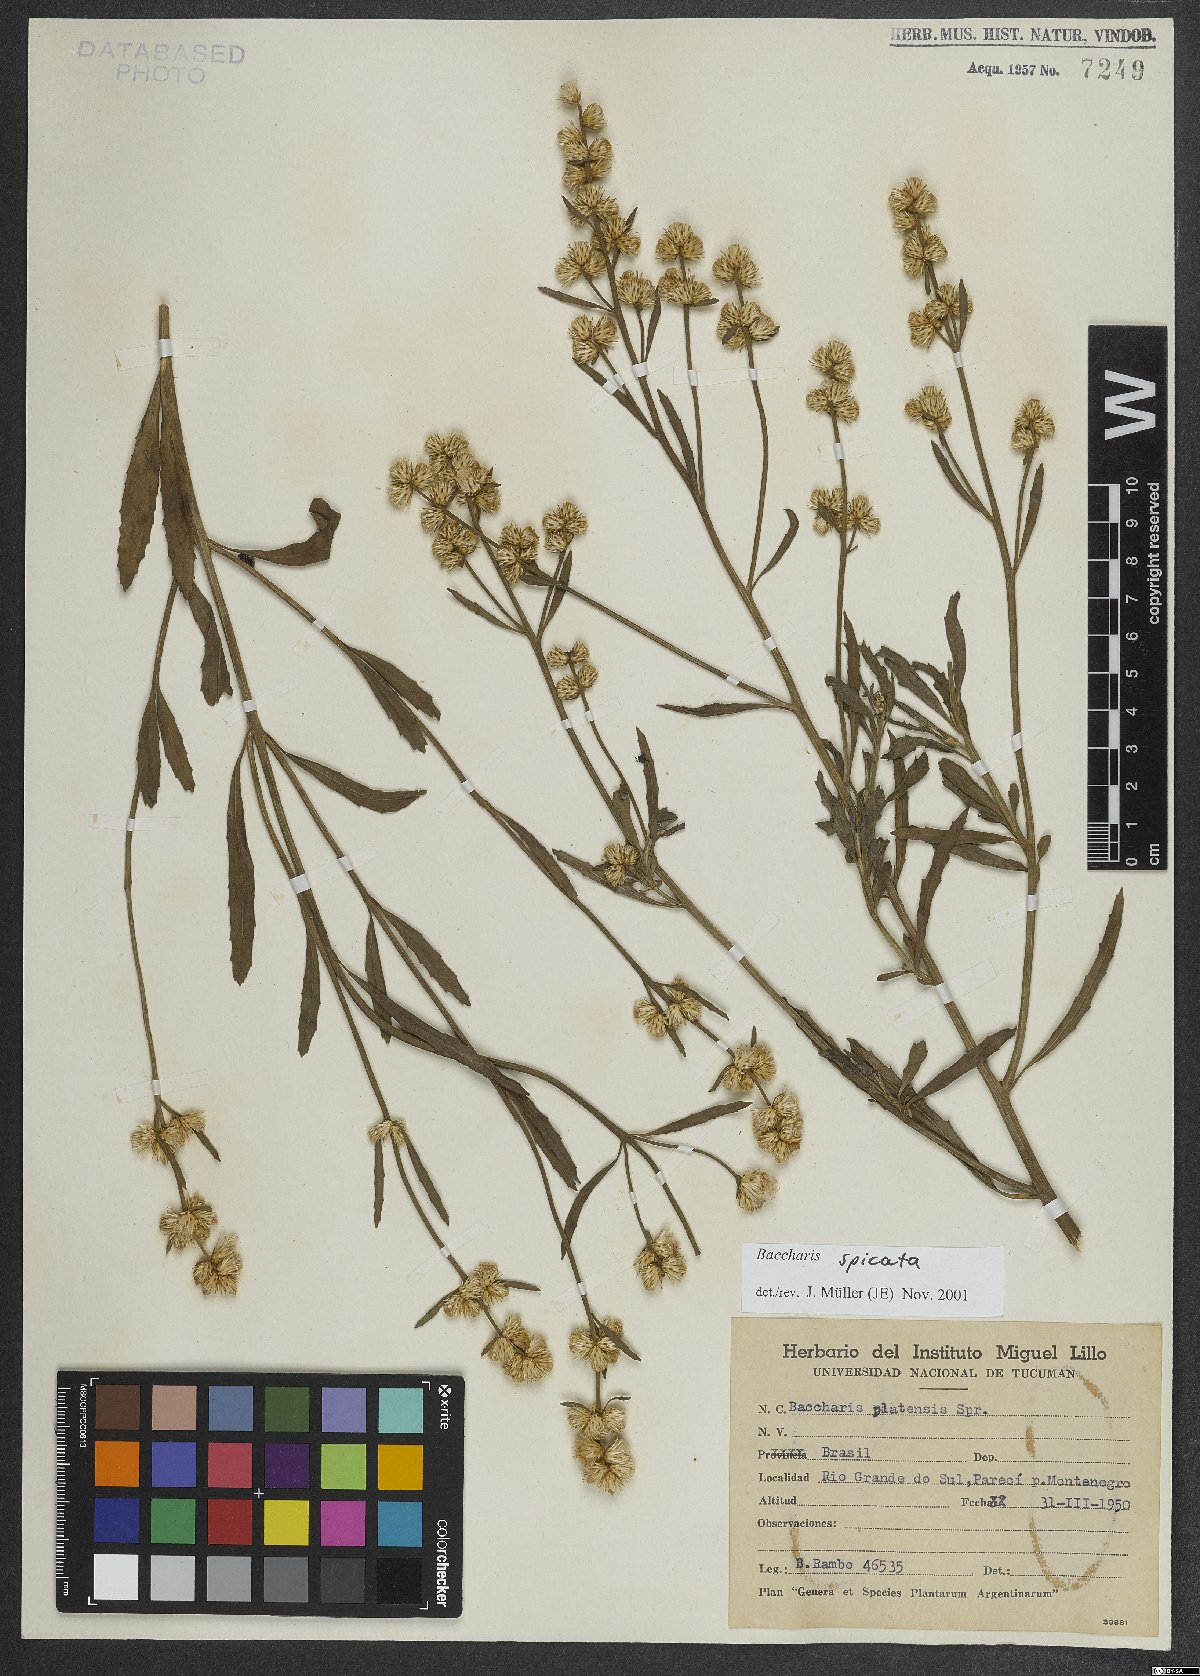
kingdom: Plantae
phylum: Tracheophyta
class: Magnoliopsida
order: Asterales
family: Asteraceae
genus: Baccharis
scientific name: Baccharis spicata
